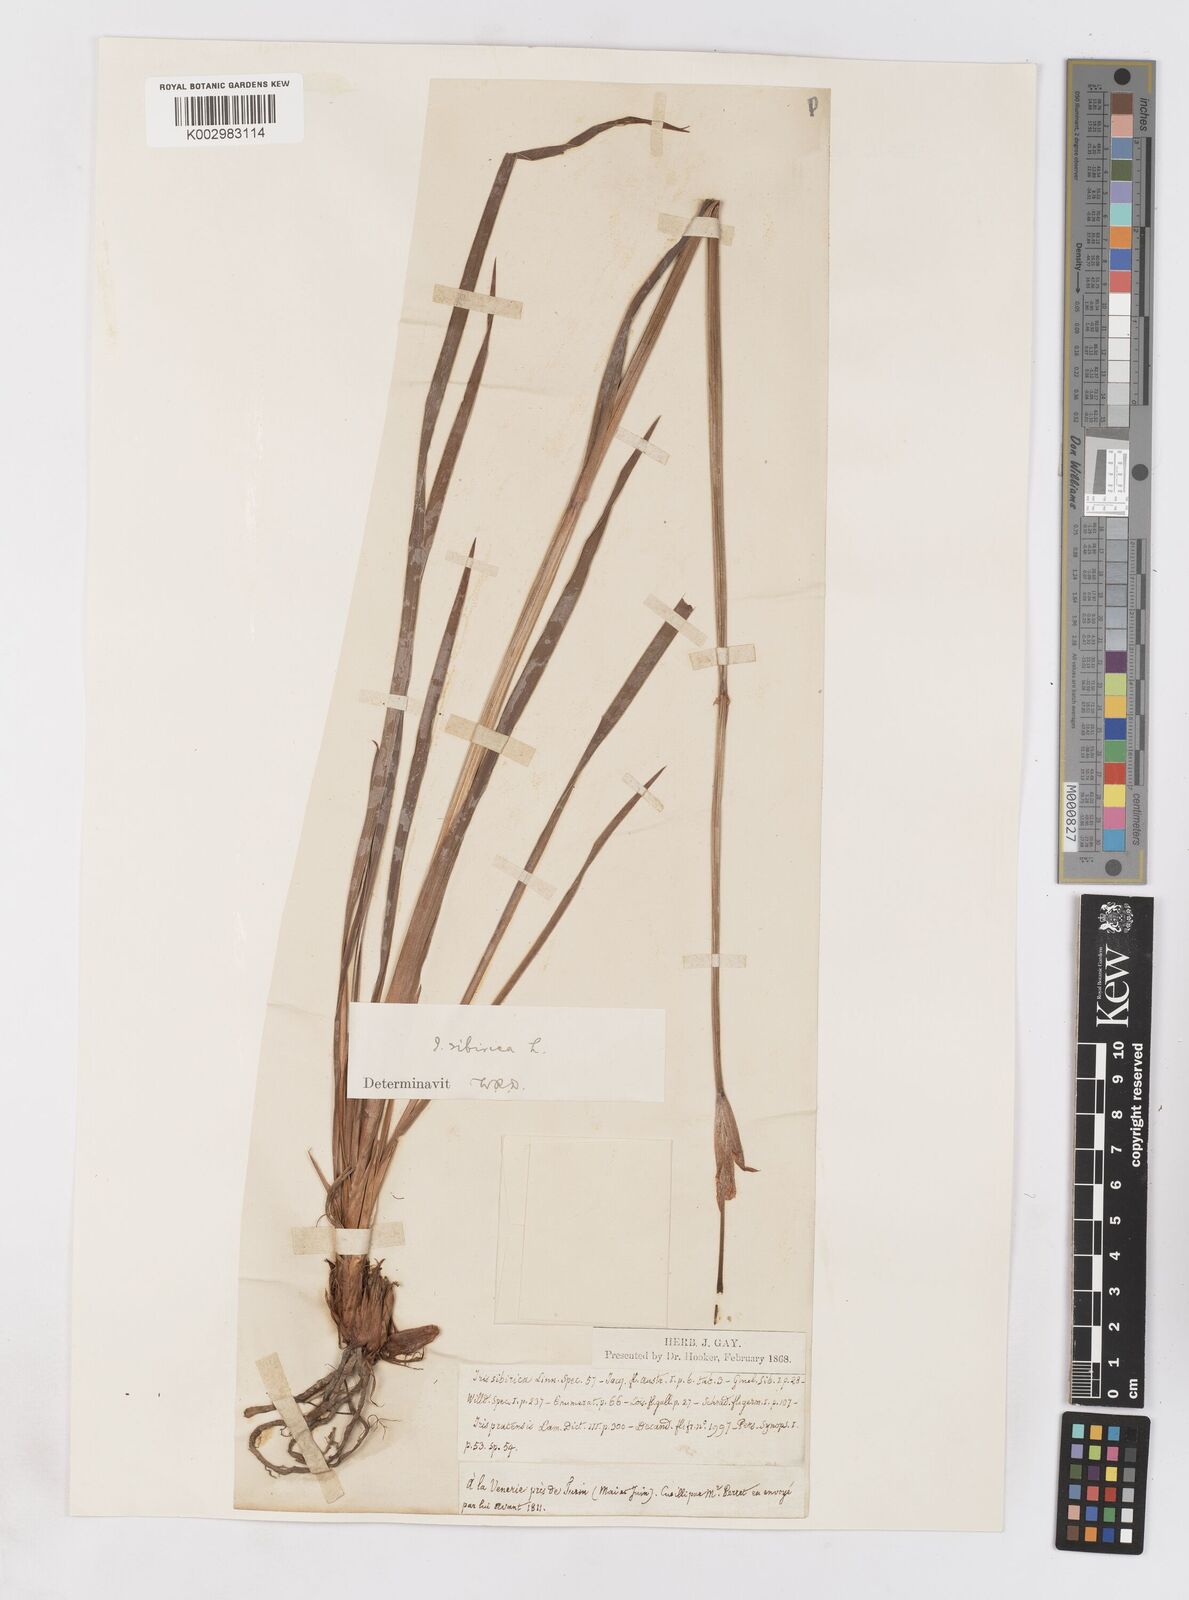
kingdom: Plantae
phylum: Tracheophyta
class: Liliopsida
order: Asparagales
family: Iridaceae
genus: Iris
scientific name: Iris sibirica
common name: Siberian iris
